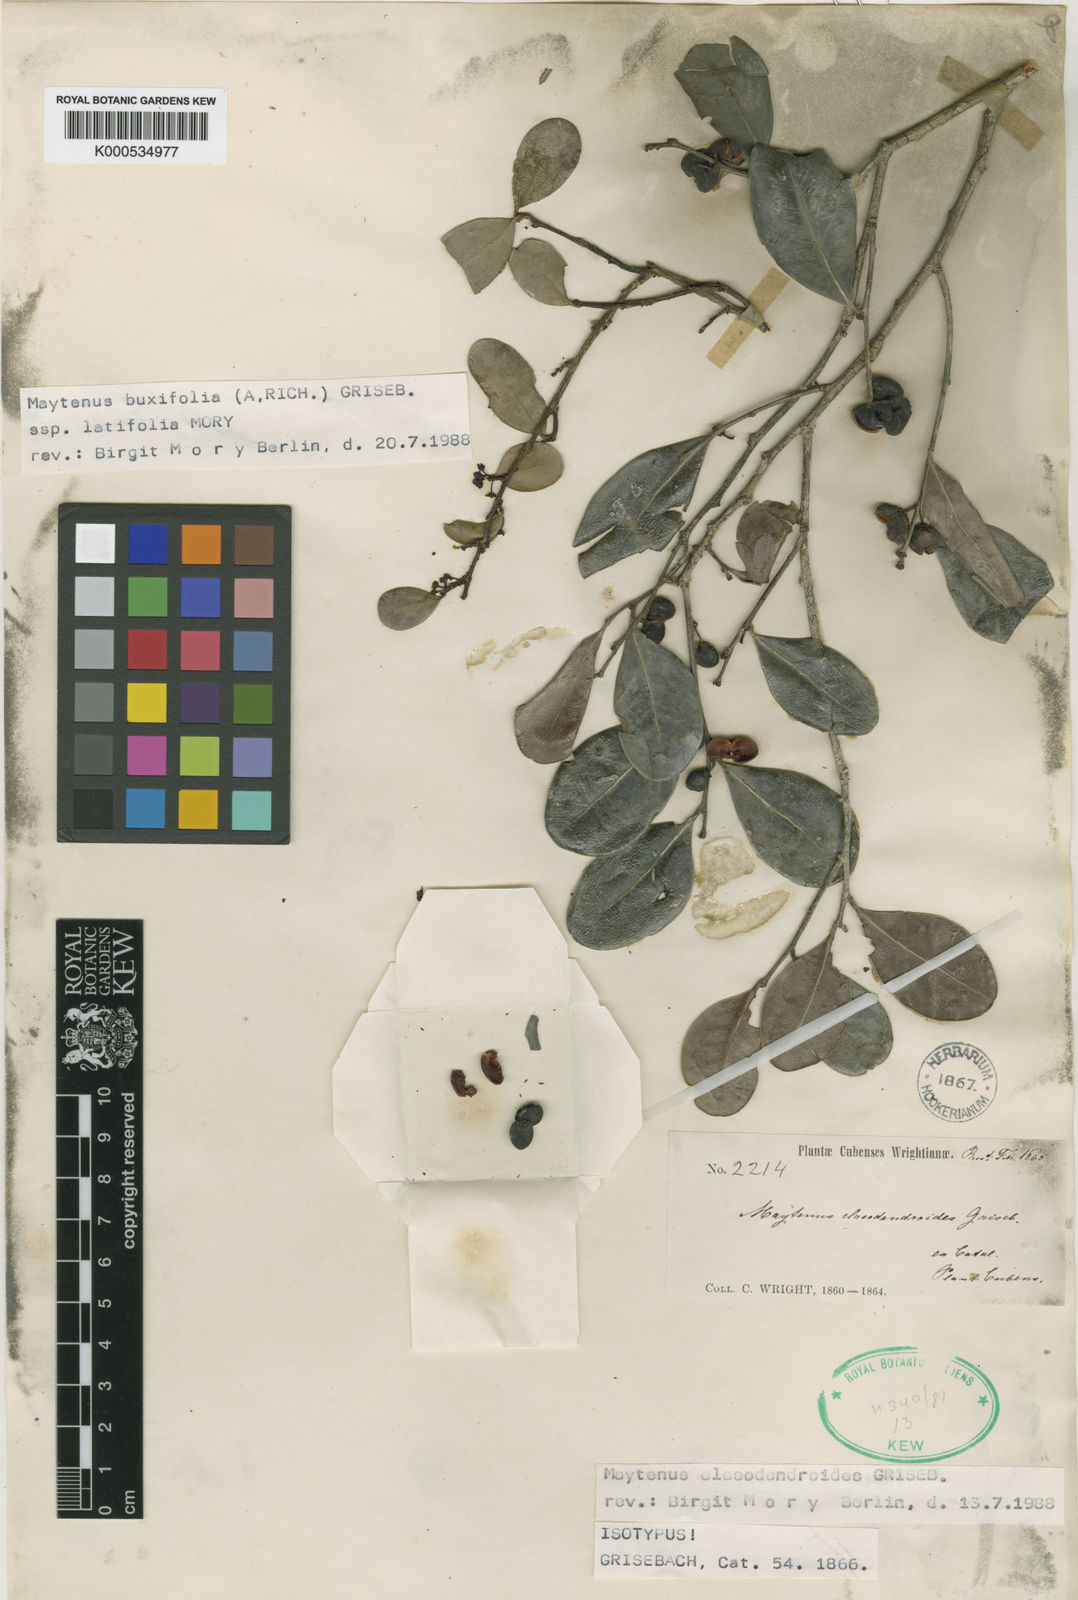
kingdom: Plantae
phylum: Tracheophyta
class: Magnoliopsida
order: Celastrales
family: Celastraceae
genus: Monteverdia
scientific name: Monteverdia elaeodendroides
